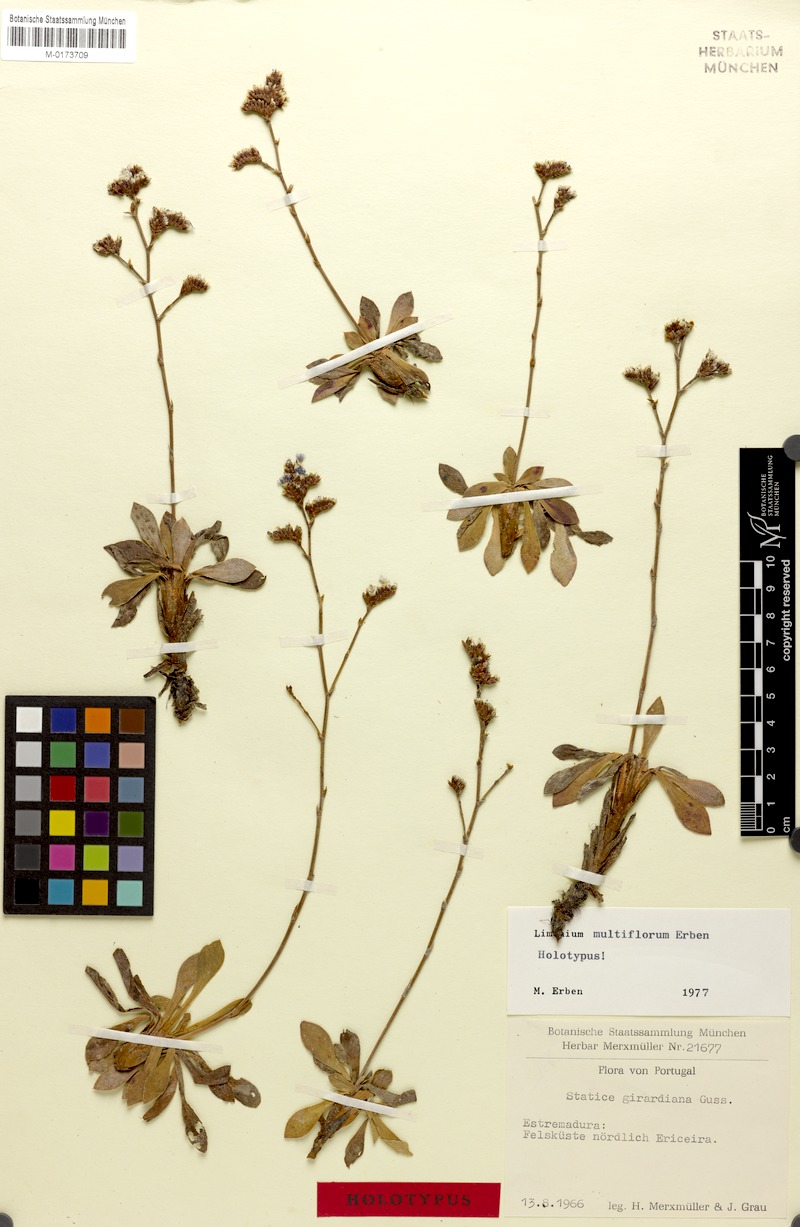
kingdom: Plantae
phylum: Tracheophyta
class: Magnoliopsida
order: Caryophyllales
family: Plumbaginaceae
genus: Limonium
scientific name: Limonium multiflorum
